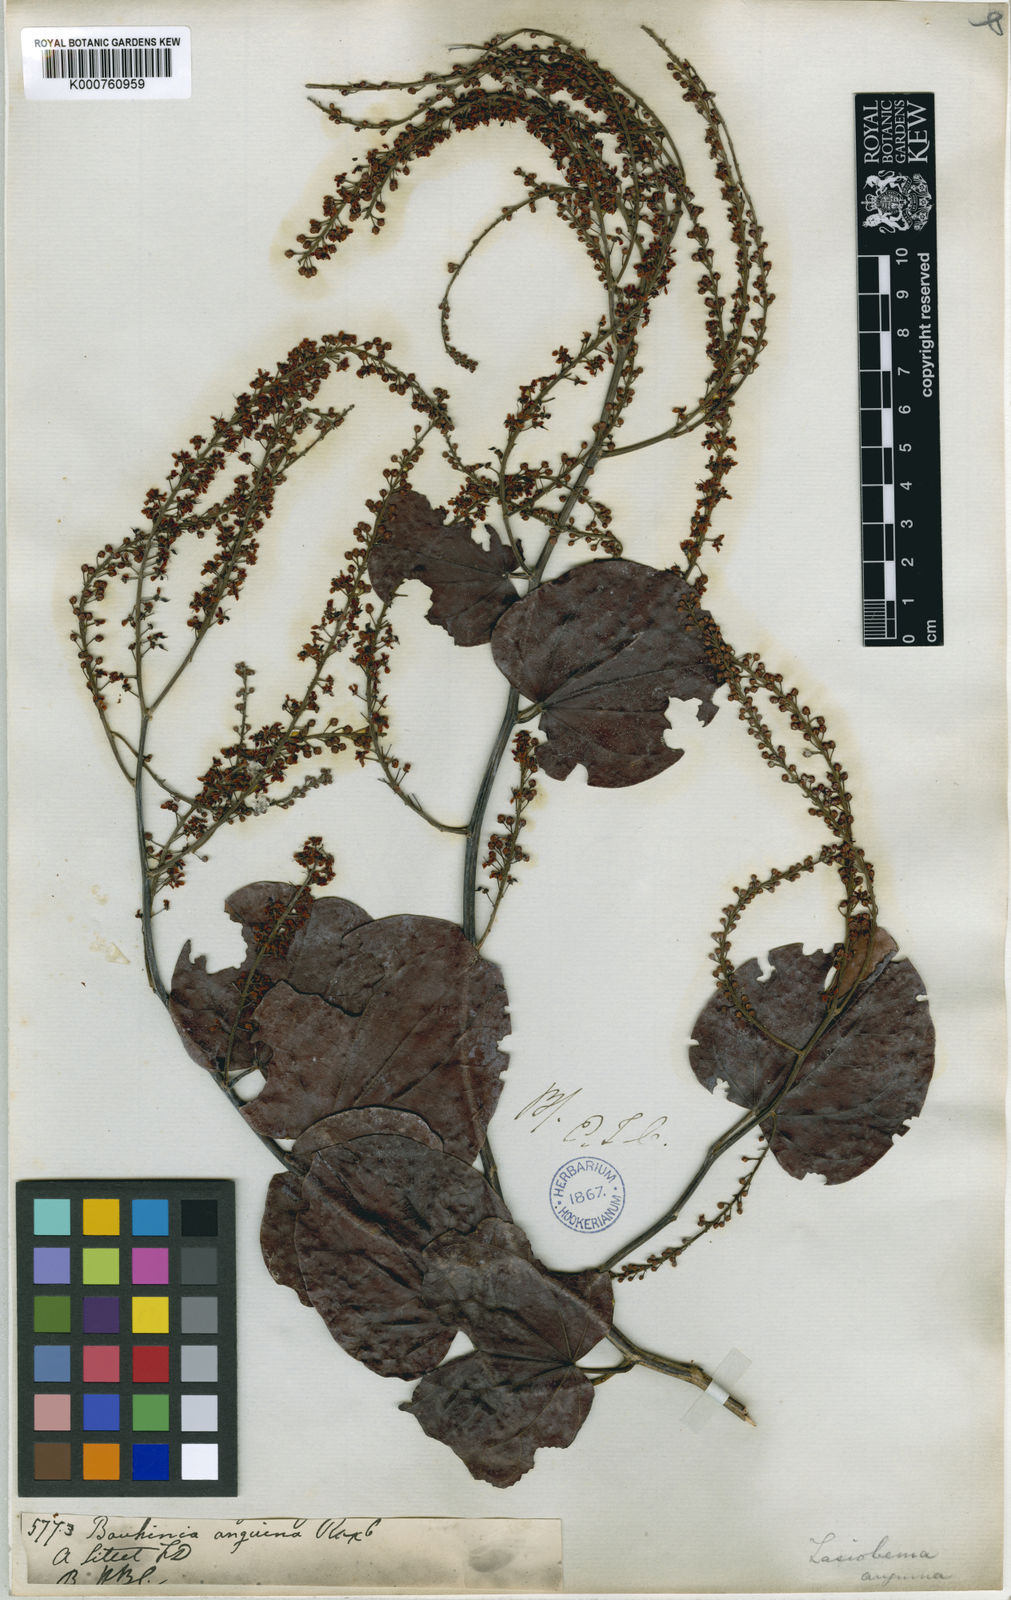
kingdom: Plantae
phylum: Tracheophyta
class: Magnoliopsida
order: Fabales
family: Fabaceae
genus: Phanera
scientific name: Phanera scandens
